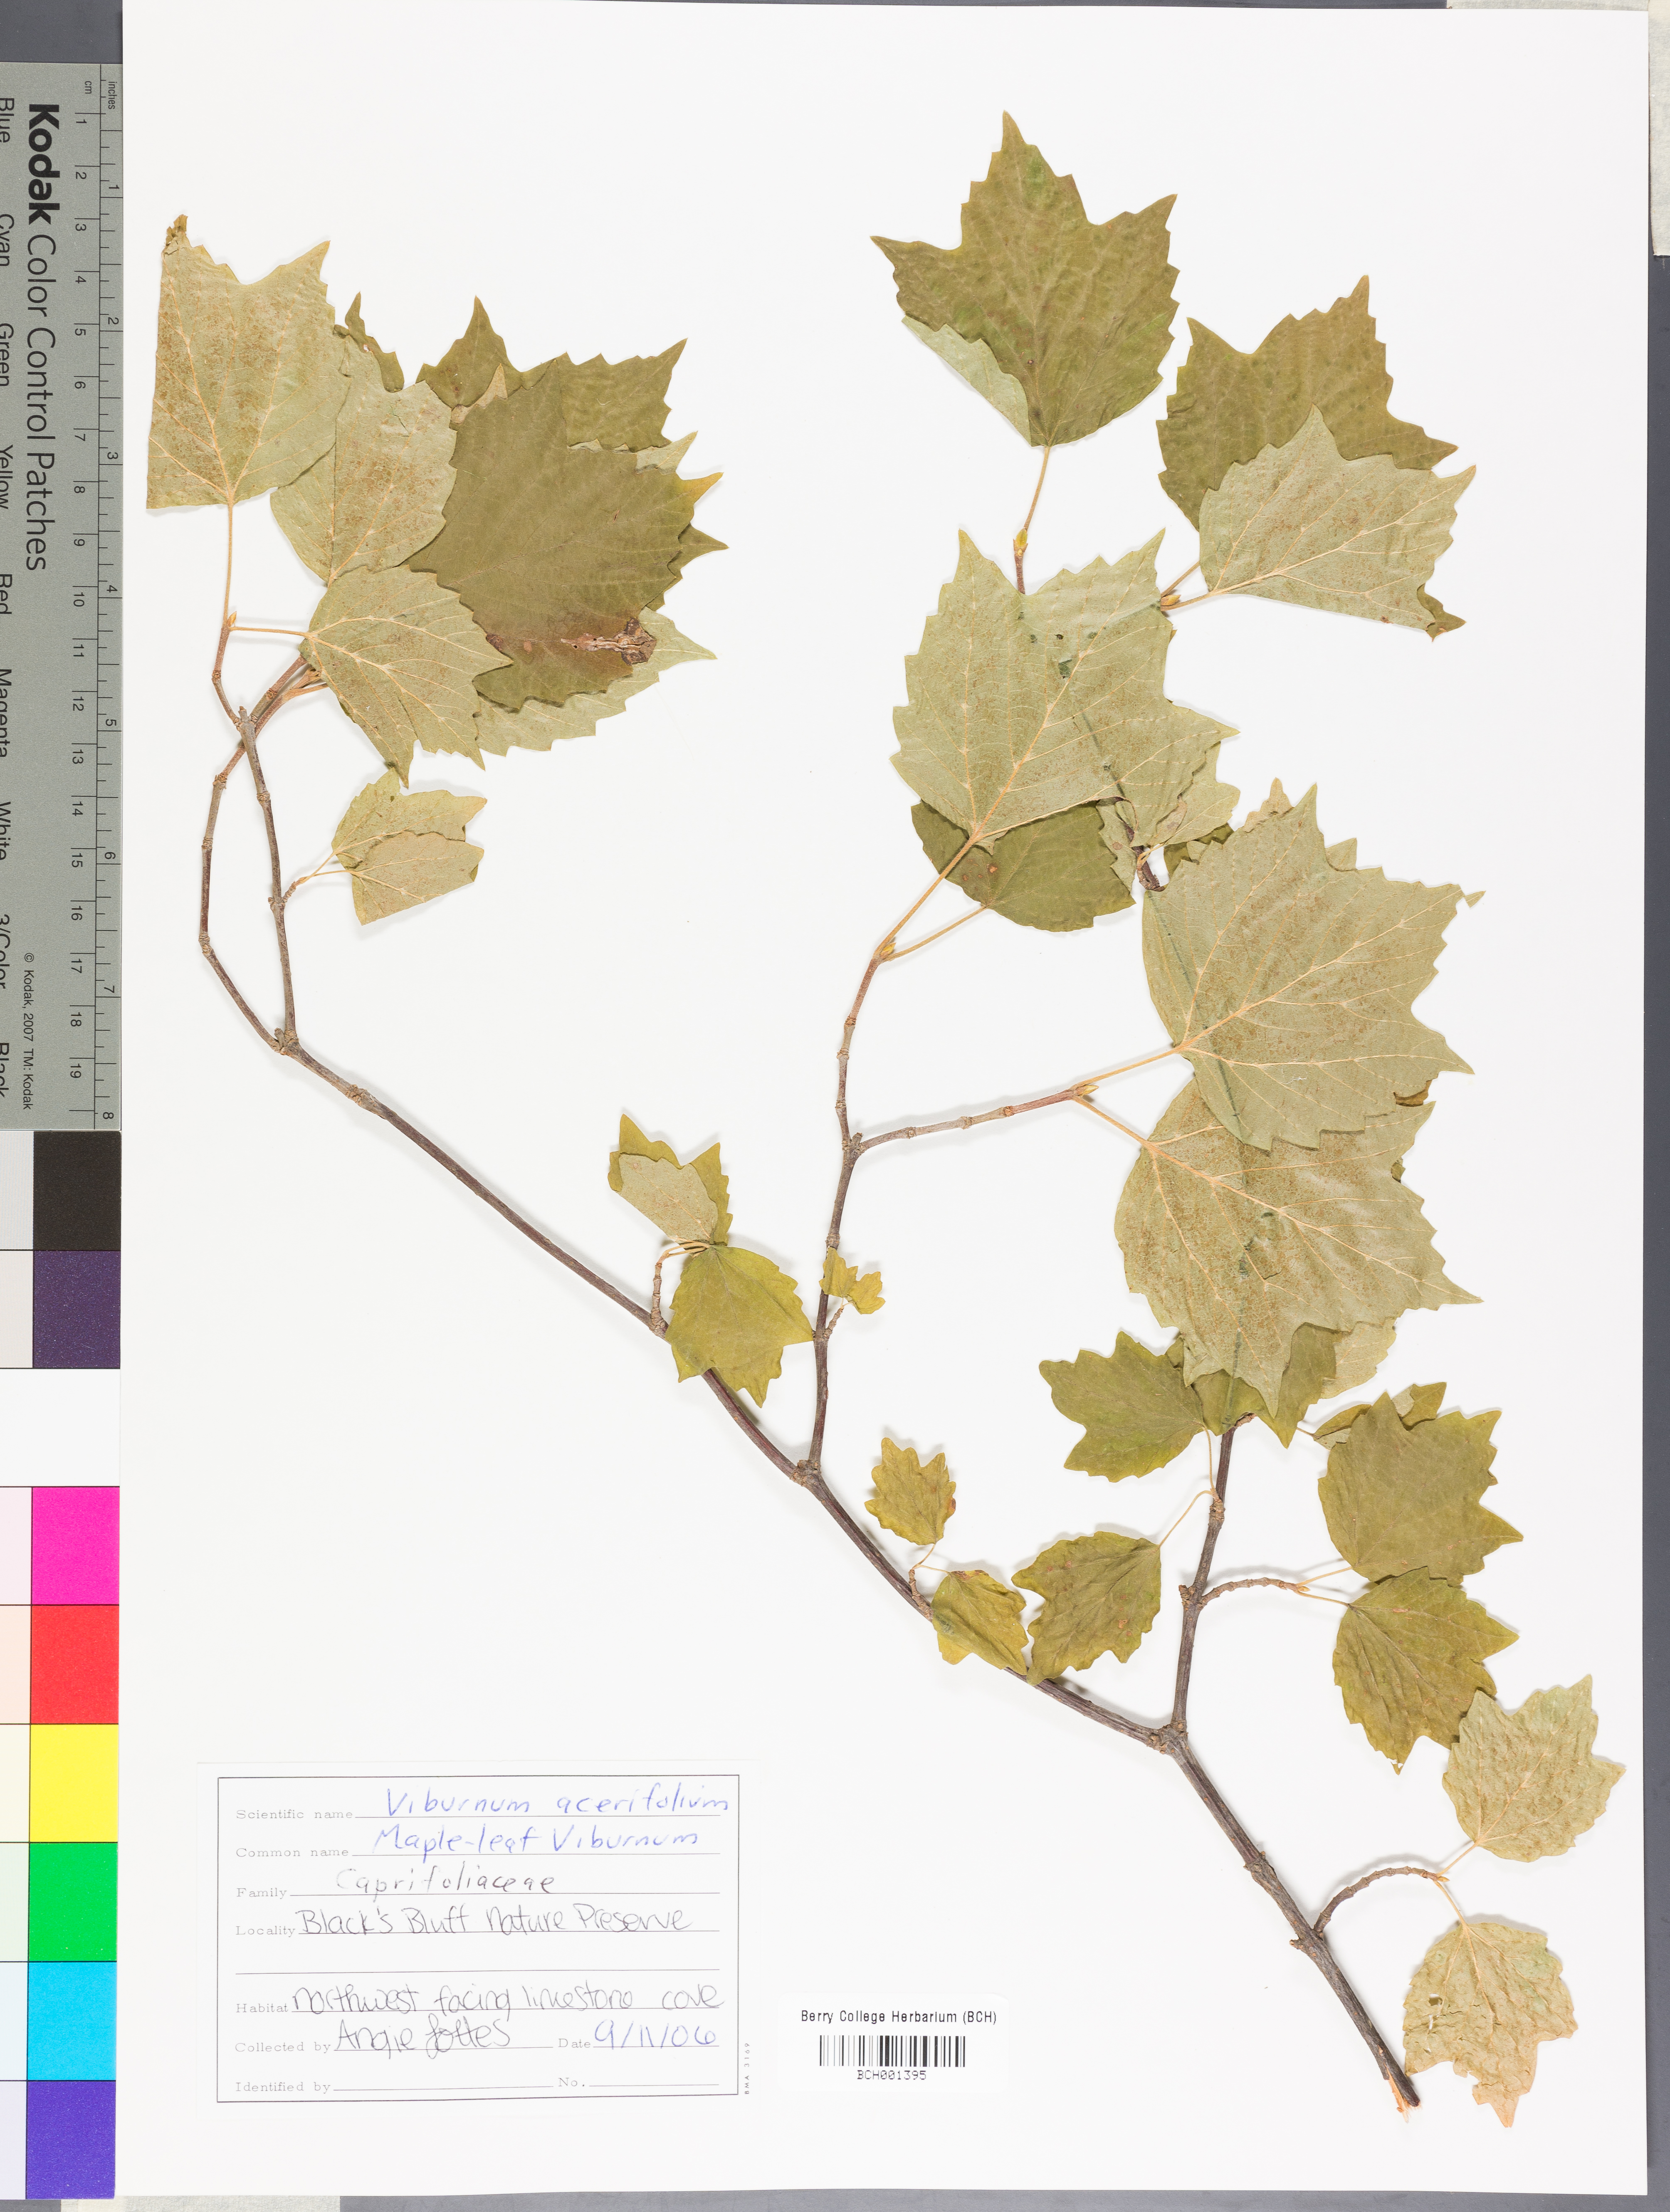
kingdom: Plantae
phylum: Tracheophyta
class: Magnoliopsida
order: Dipsacales
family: Viburnaceae
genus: Viburnum
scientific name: Viburnum acerifolium
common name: Dockmackie
